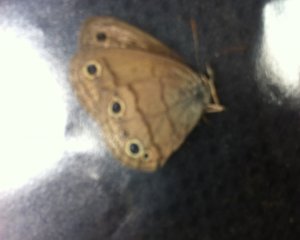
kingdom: Animalia
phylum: Arthropoda
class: Insecta
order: Lepidoptera
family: Nymphalidae
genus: Euptychia
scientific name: Euptychia cymela
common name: Little Wood Satyr
